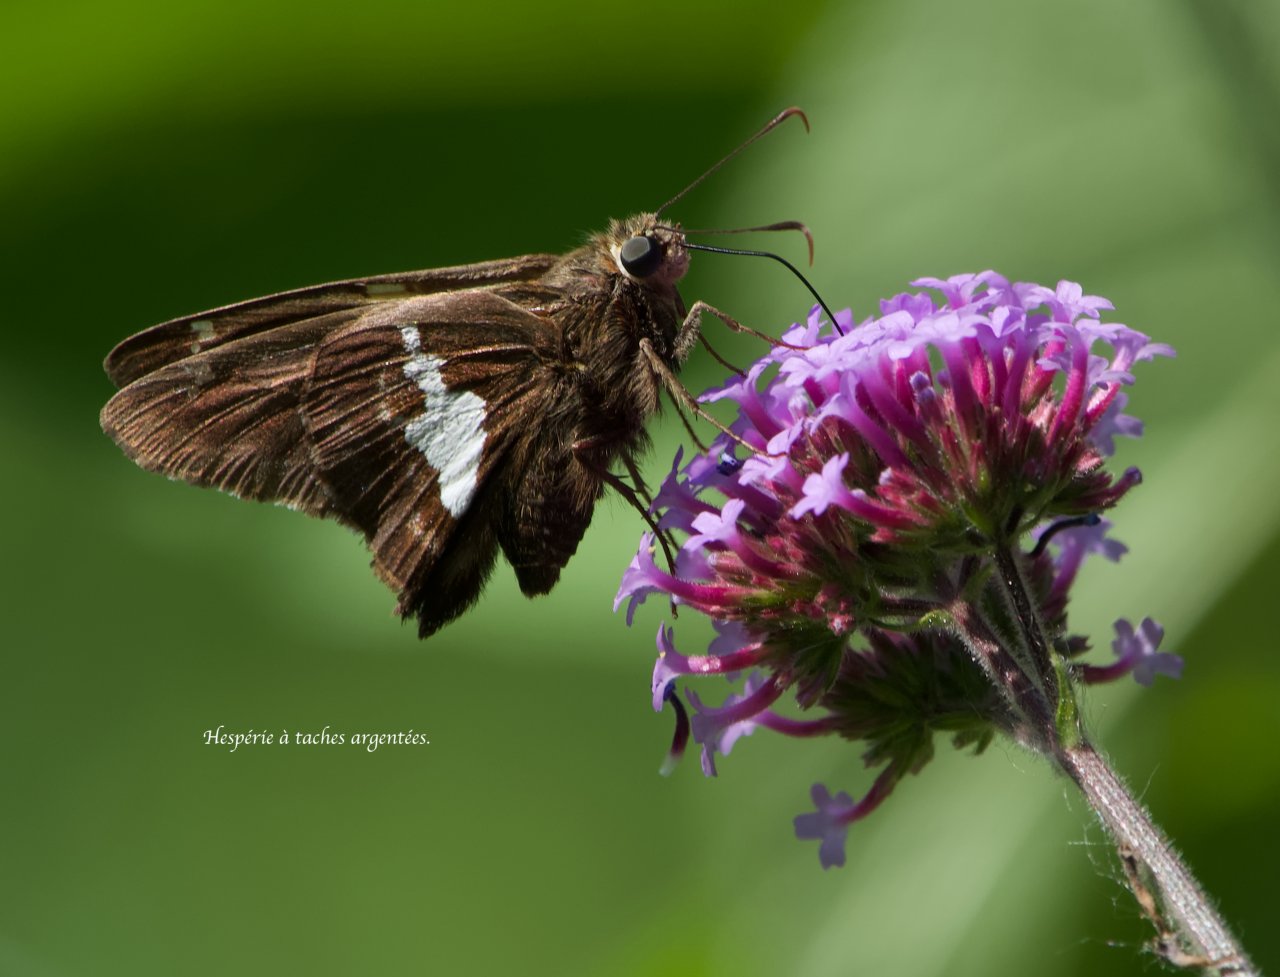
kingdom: Animalia
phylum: Arthropoda
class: Insecta
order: Lepidoptera
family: Hesperiidae
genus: Epargyreus
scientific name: Epargyreus clarus
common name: Silver-spotted Skipper
